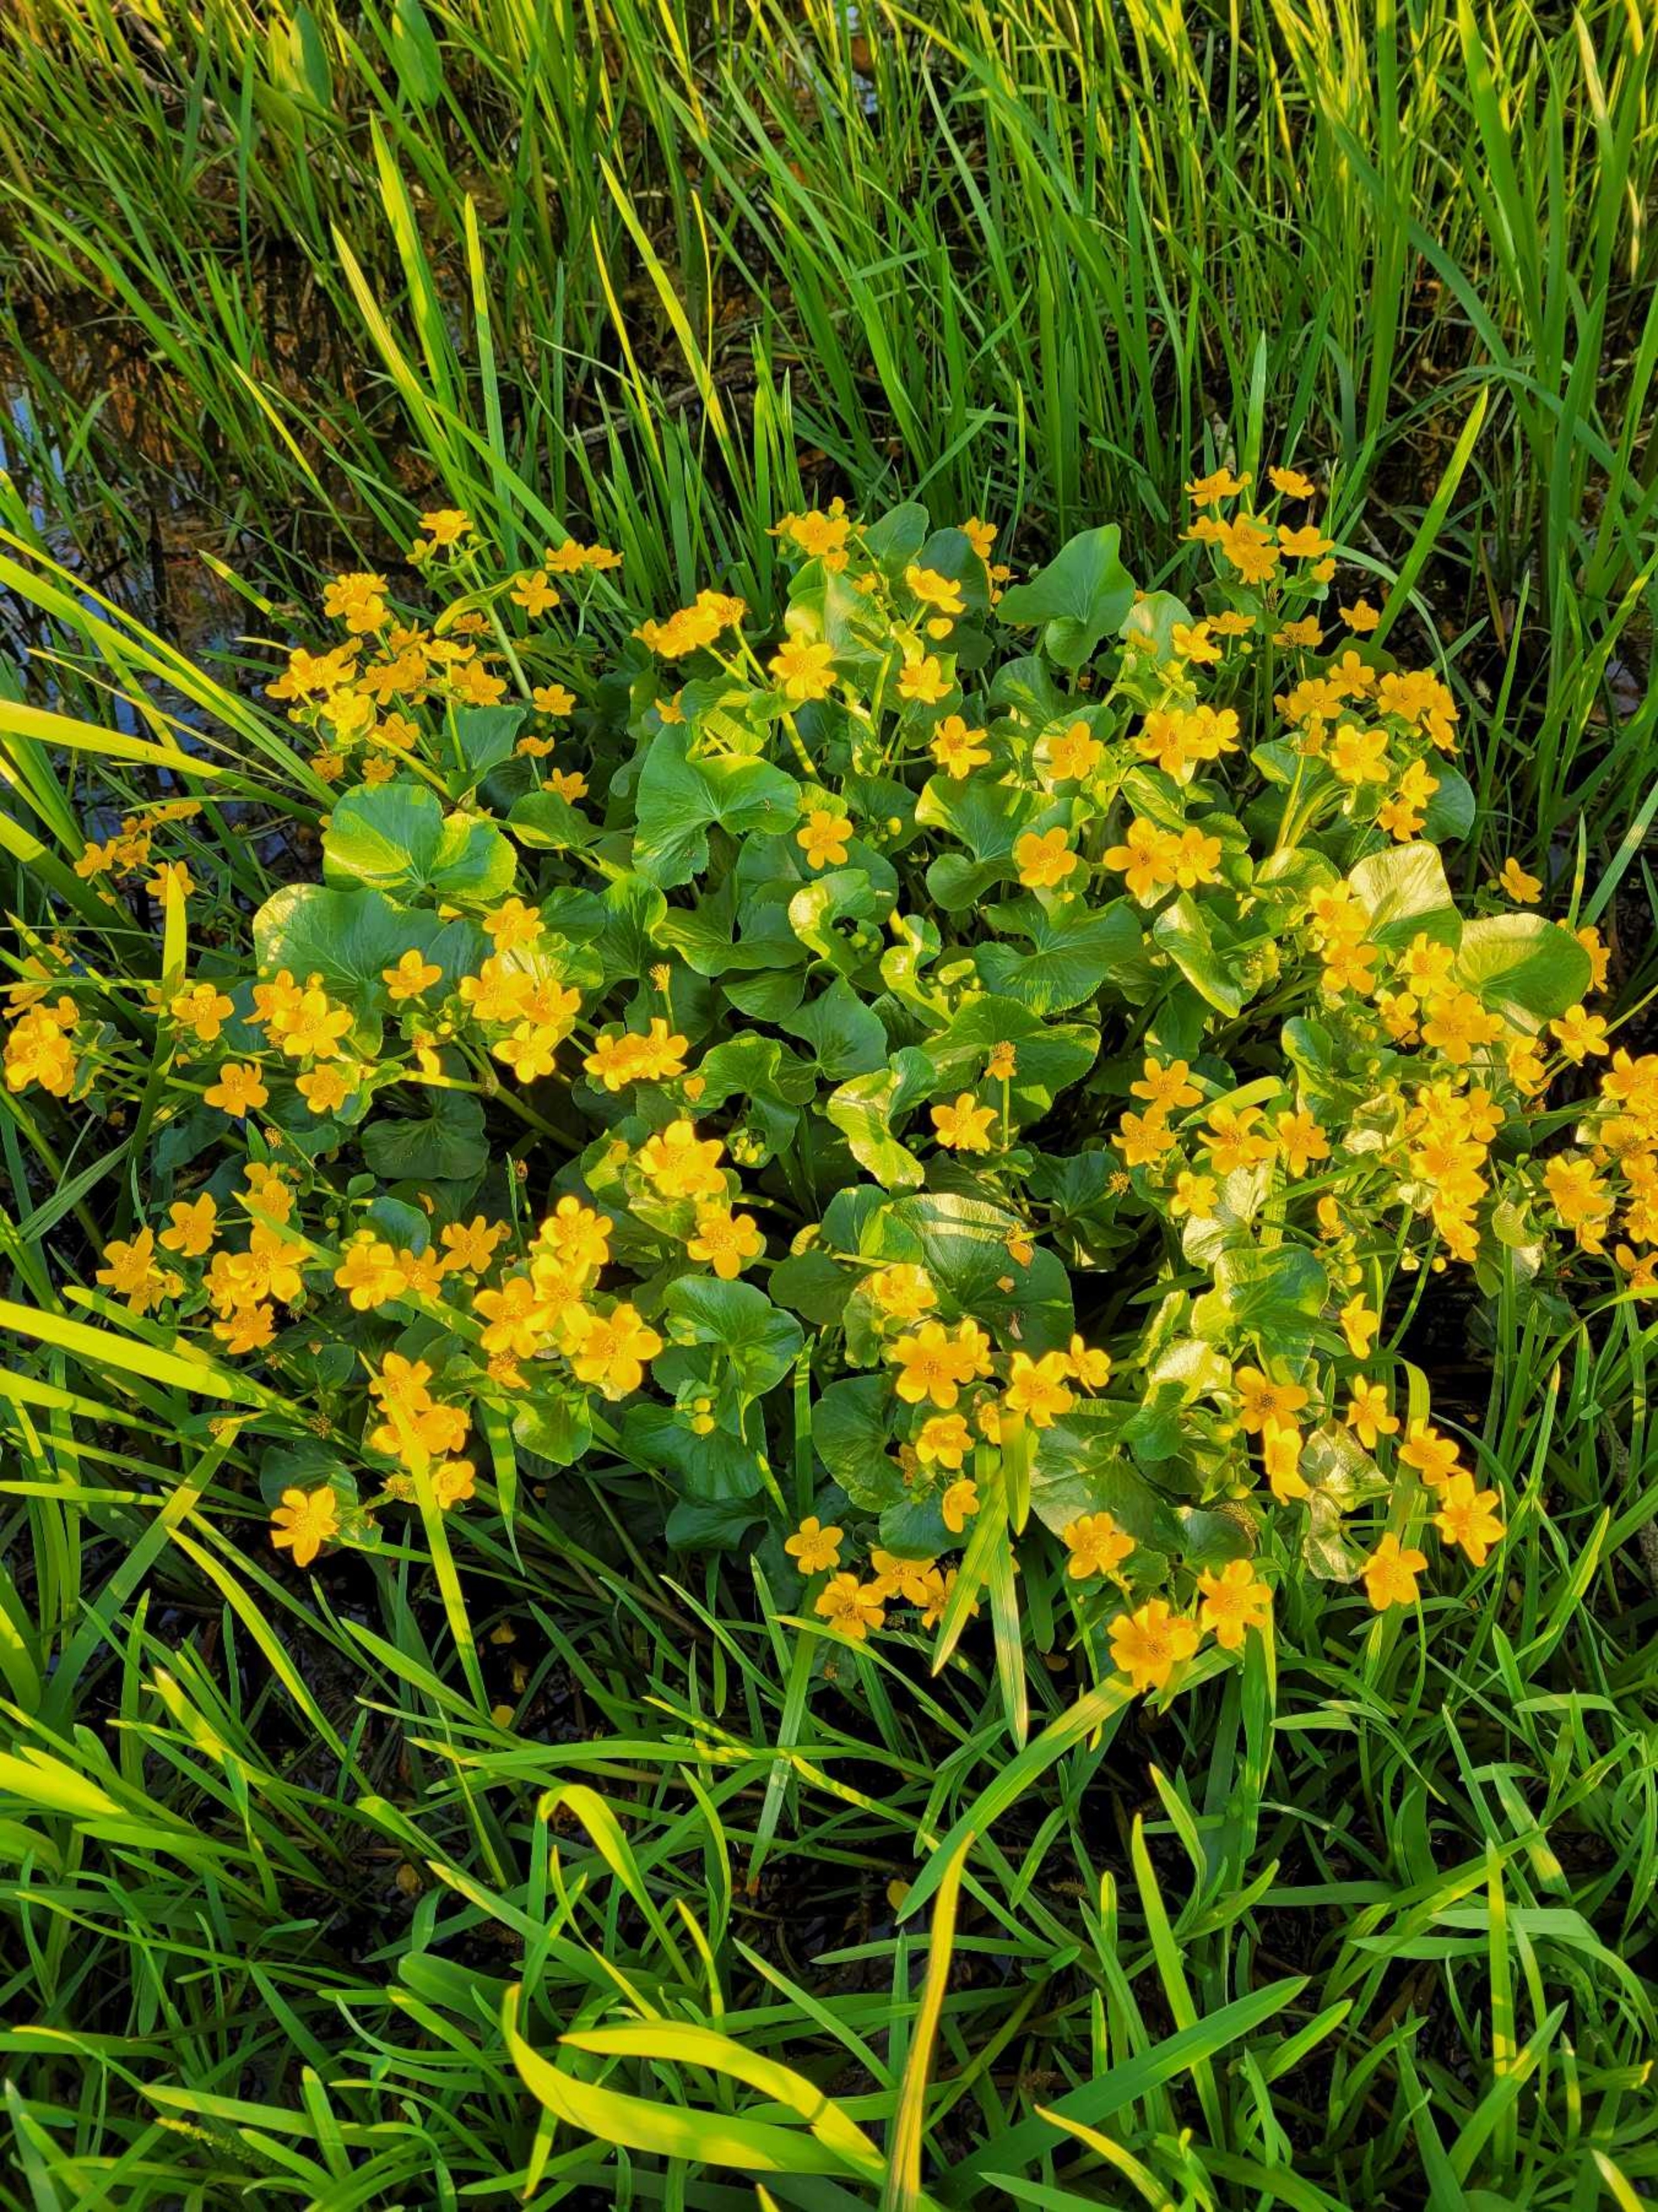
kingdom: Plantae
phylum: Tracheophyta
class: Magnoliopsida
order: Ranunculales
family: Ranunculaceae
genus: Caltha
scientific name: Caltha palustris
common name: Eng-kabbeleje
